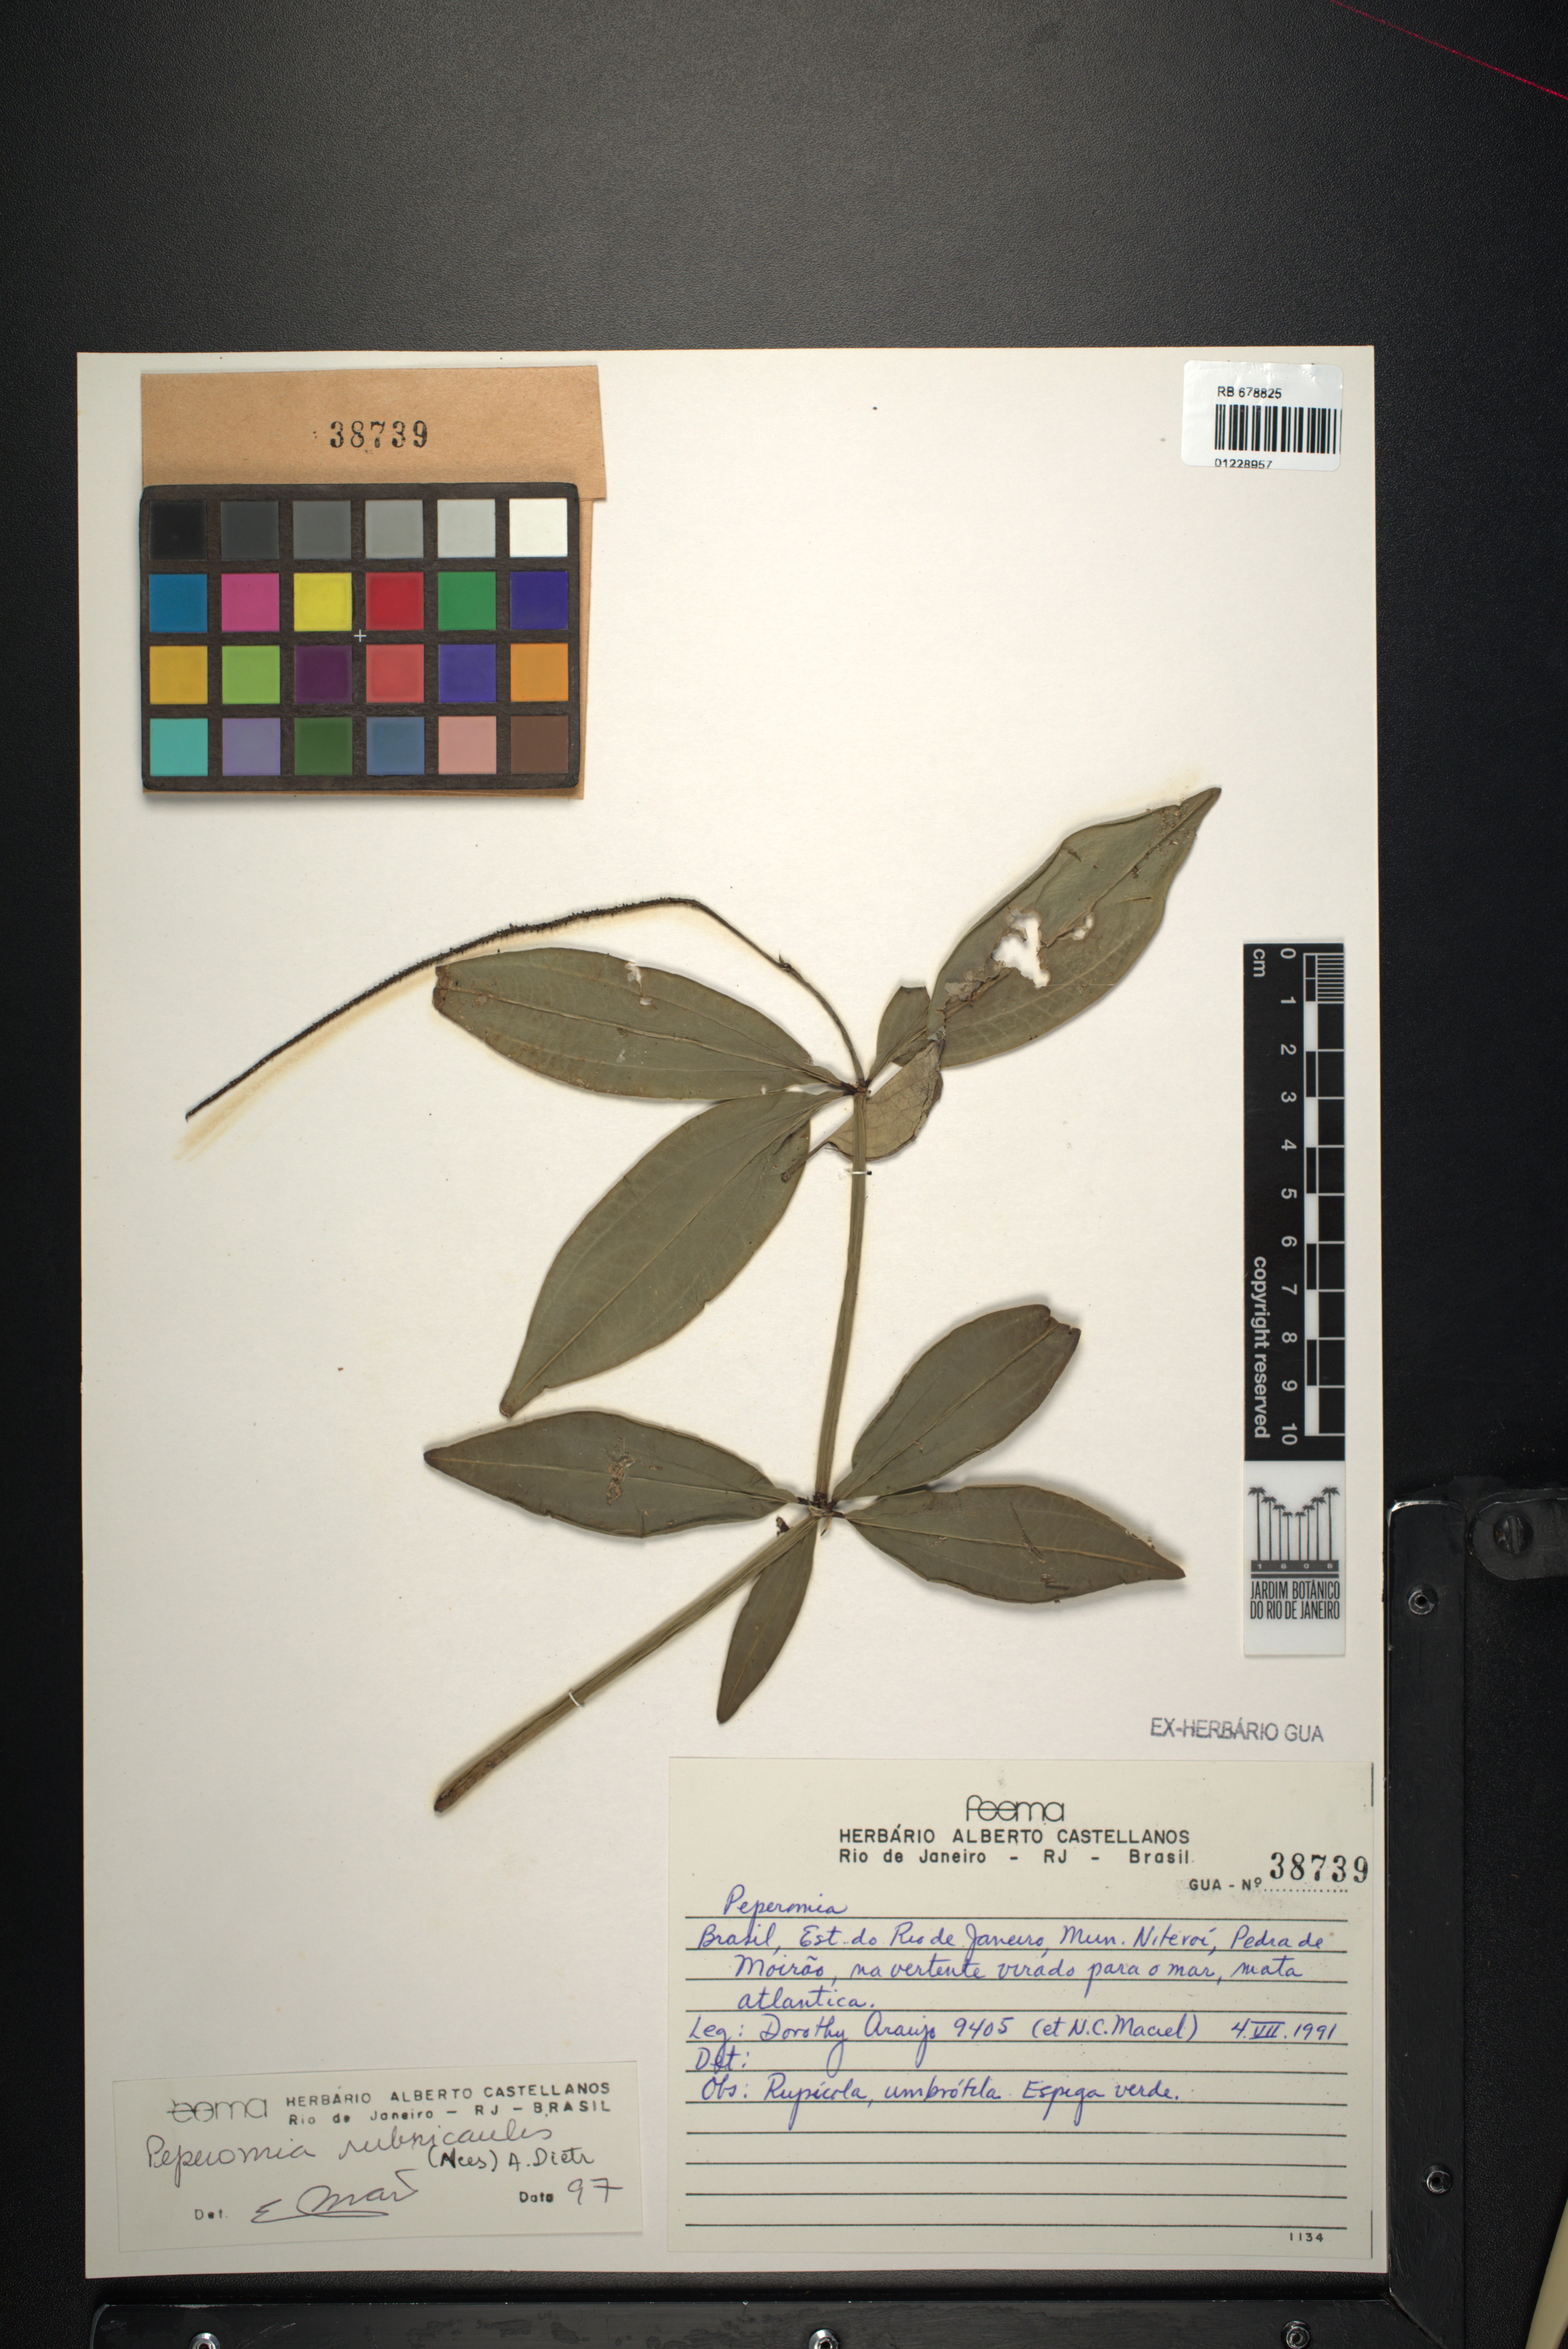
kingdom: Plantae
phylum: Tracheophyta
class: Liliopsida
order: Pandanales
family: Velloziaceae
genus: Nanuza
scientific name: Nanuza plicata
